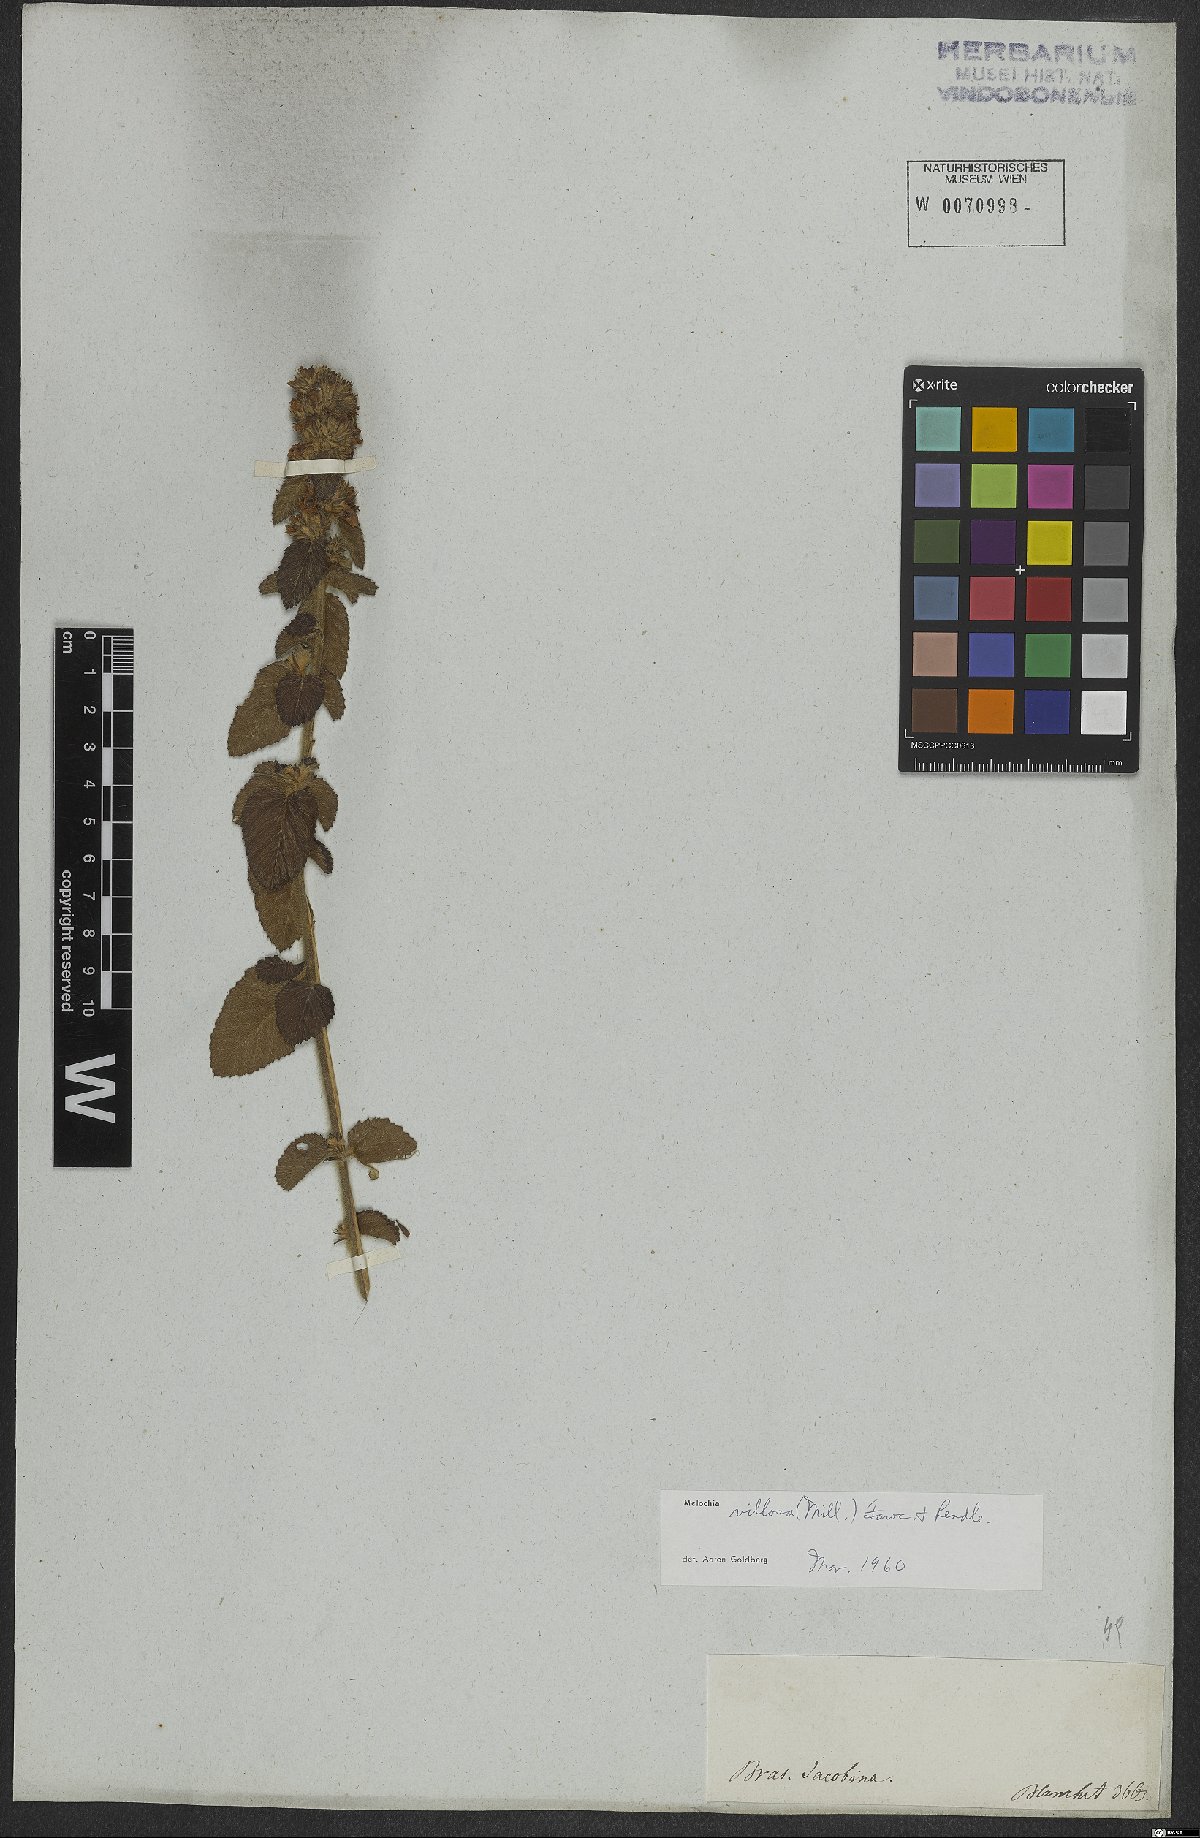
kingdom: Plantae
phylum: Tracheophyta
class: Magnoliopsida
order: Malvales
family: Malvaceae
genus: Melochia
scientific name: Melochia spicata
